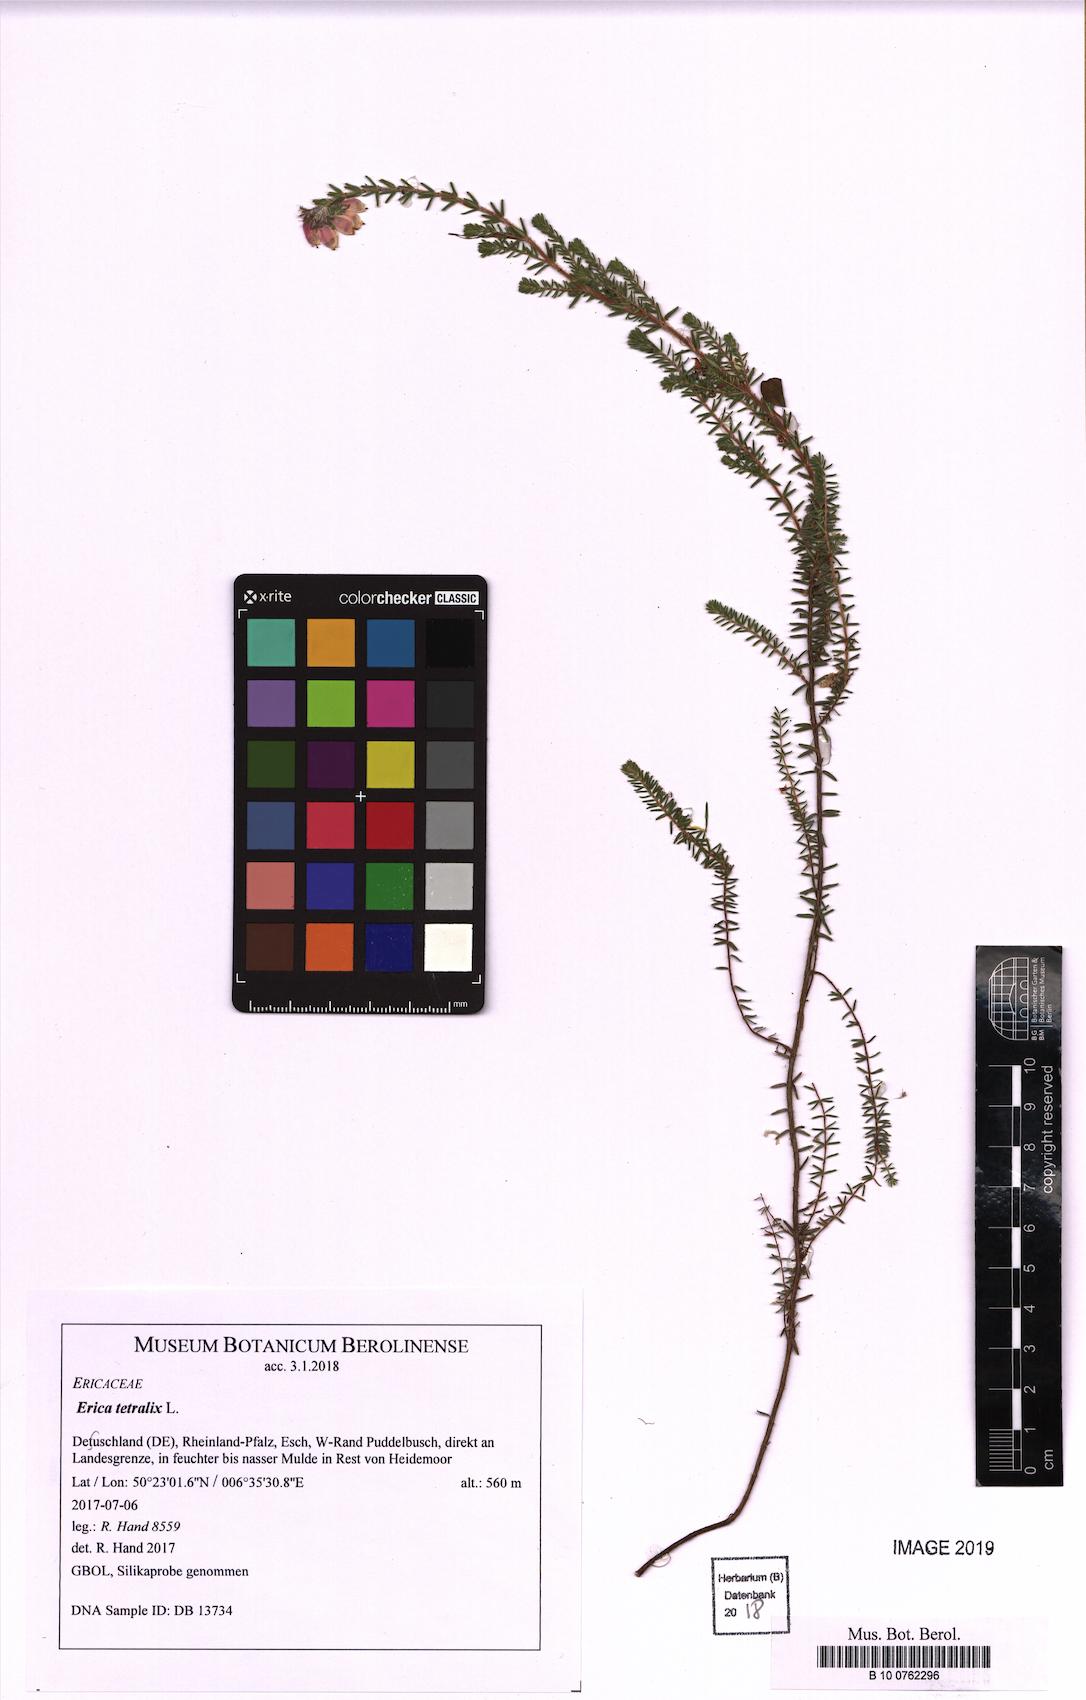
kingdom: Plantae
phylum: Tracheophyta
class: Magnoliopsida
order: Ericales
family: Ericaceae
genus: Erica
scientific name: Erica tetralix
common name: Cross-leaved heath
